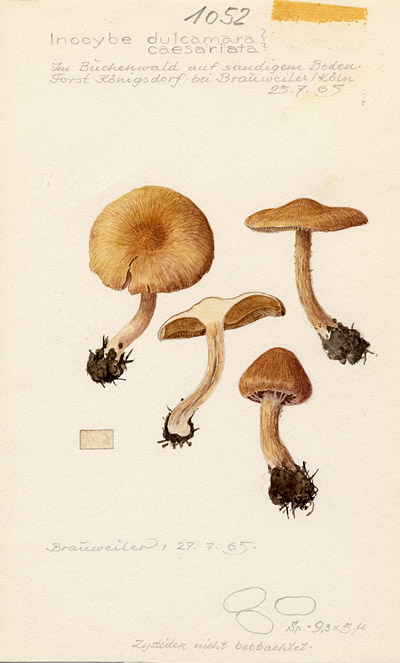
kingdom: Fungi
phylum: Basidiomycota
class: Agaricomycetes
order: Agaricales
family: Inocybaceae
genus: Inocybe
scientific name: Inocybe
